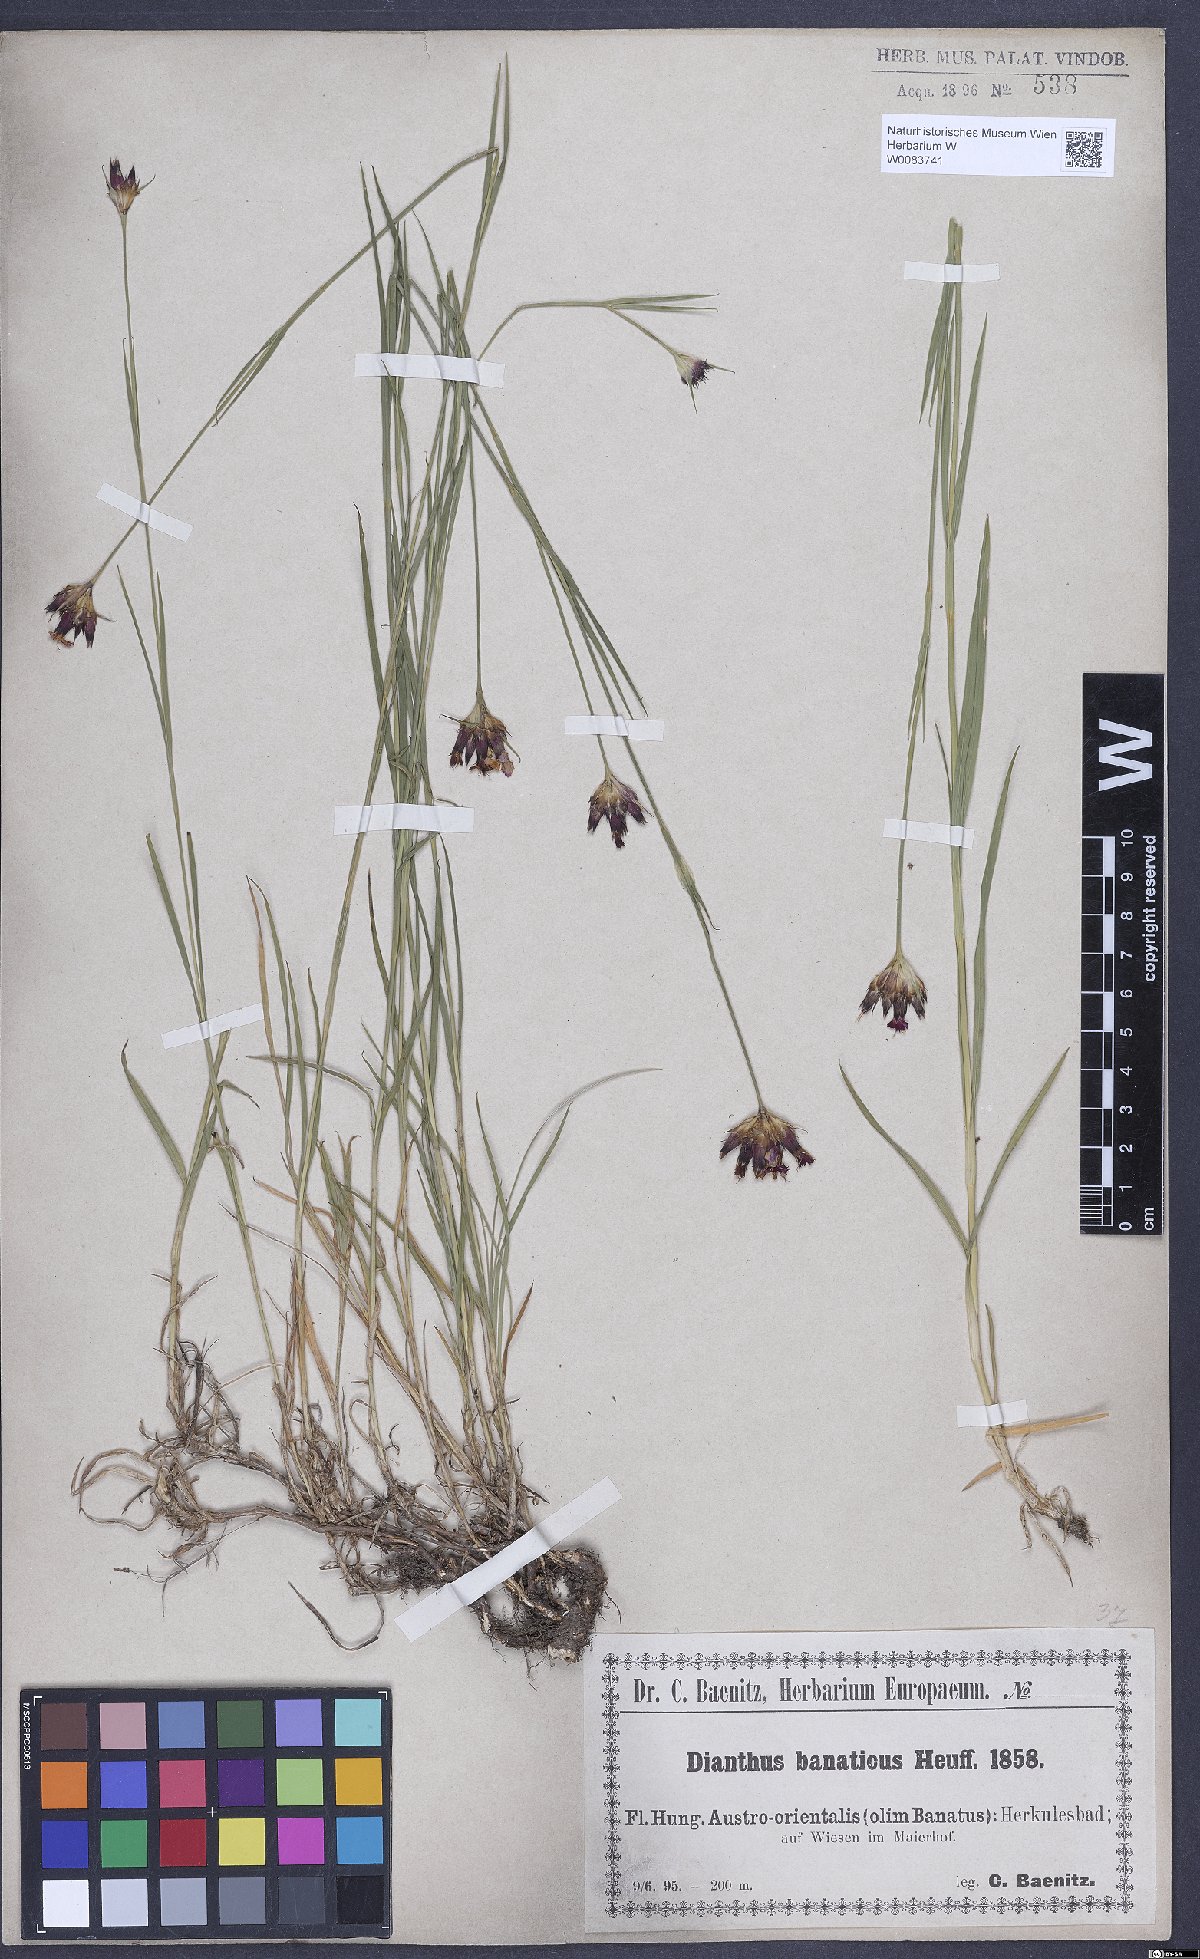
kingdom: Plantae
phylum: Tracheophyta
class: Magnoliopsida
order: Caryophyllales
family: Caryophyllaceae
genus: Dianthus
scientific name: Dianthus giganteus
